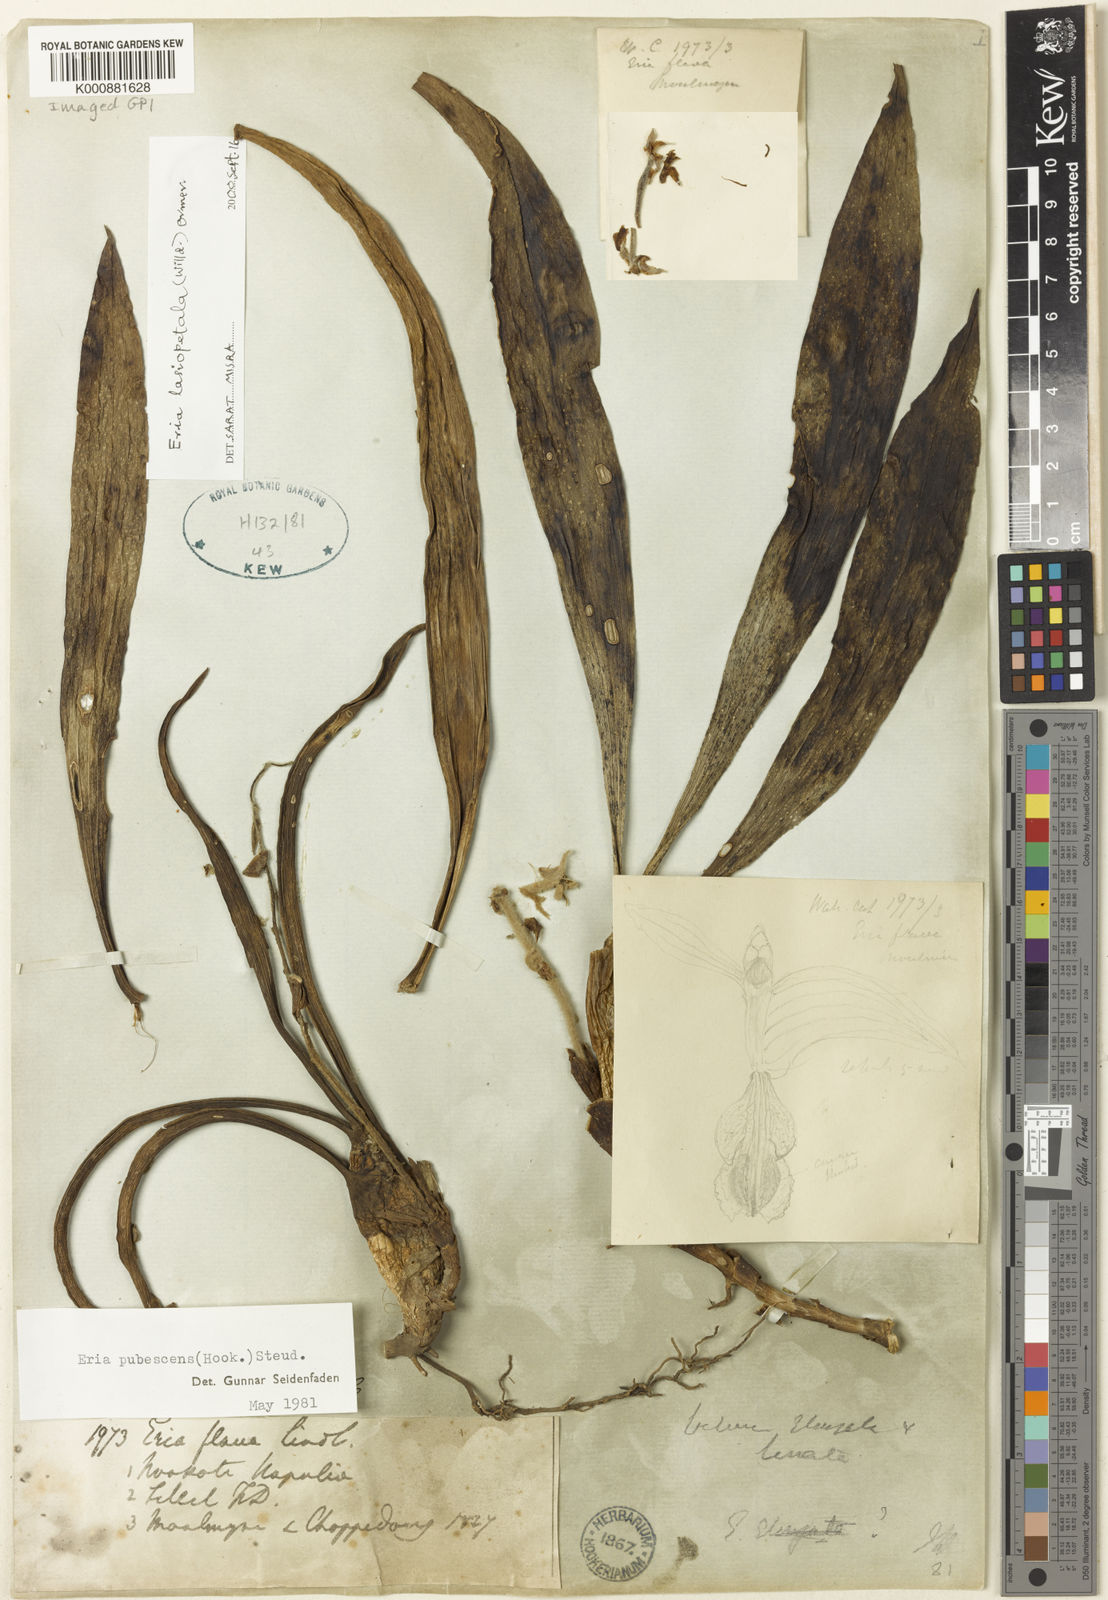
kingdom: Plantae
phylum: Tracheophyta
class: Liliopsida
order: Asparagales
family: Orchidaceae
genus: Dendrolirium
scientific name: Dendrolirium lasiopetalum
